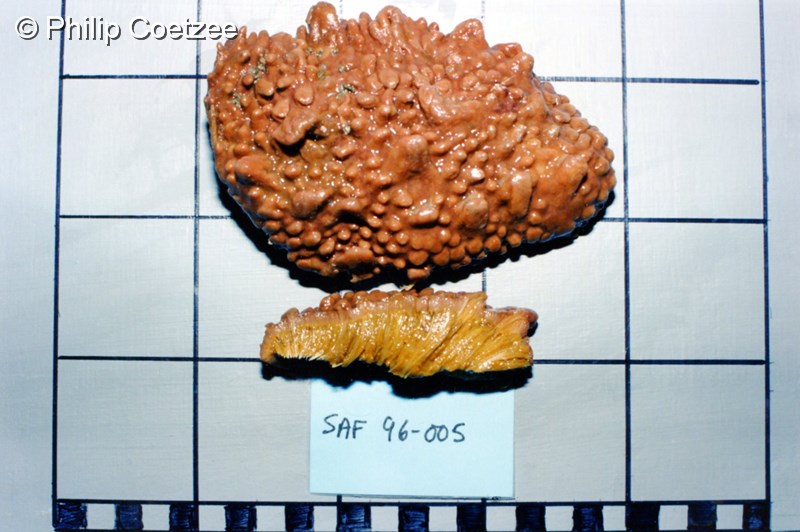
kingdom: Animalia
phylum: Porifera
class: Demospongiae
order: Polymastiida
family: Polymastiidae
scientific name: Polymastiidae
